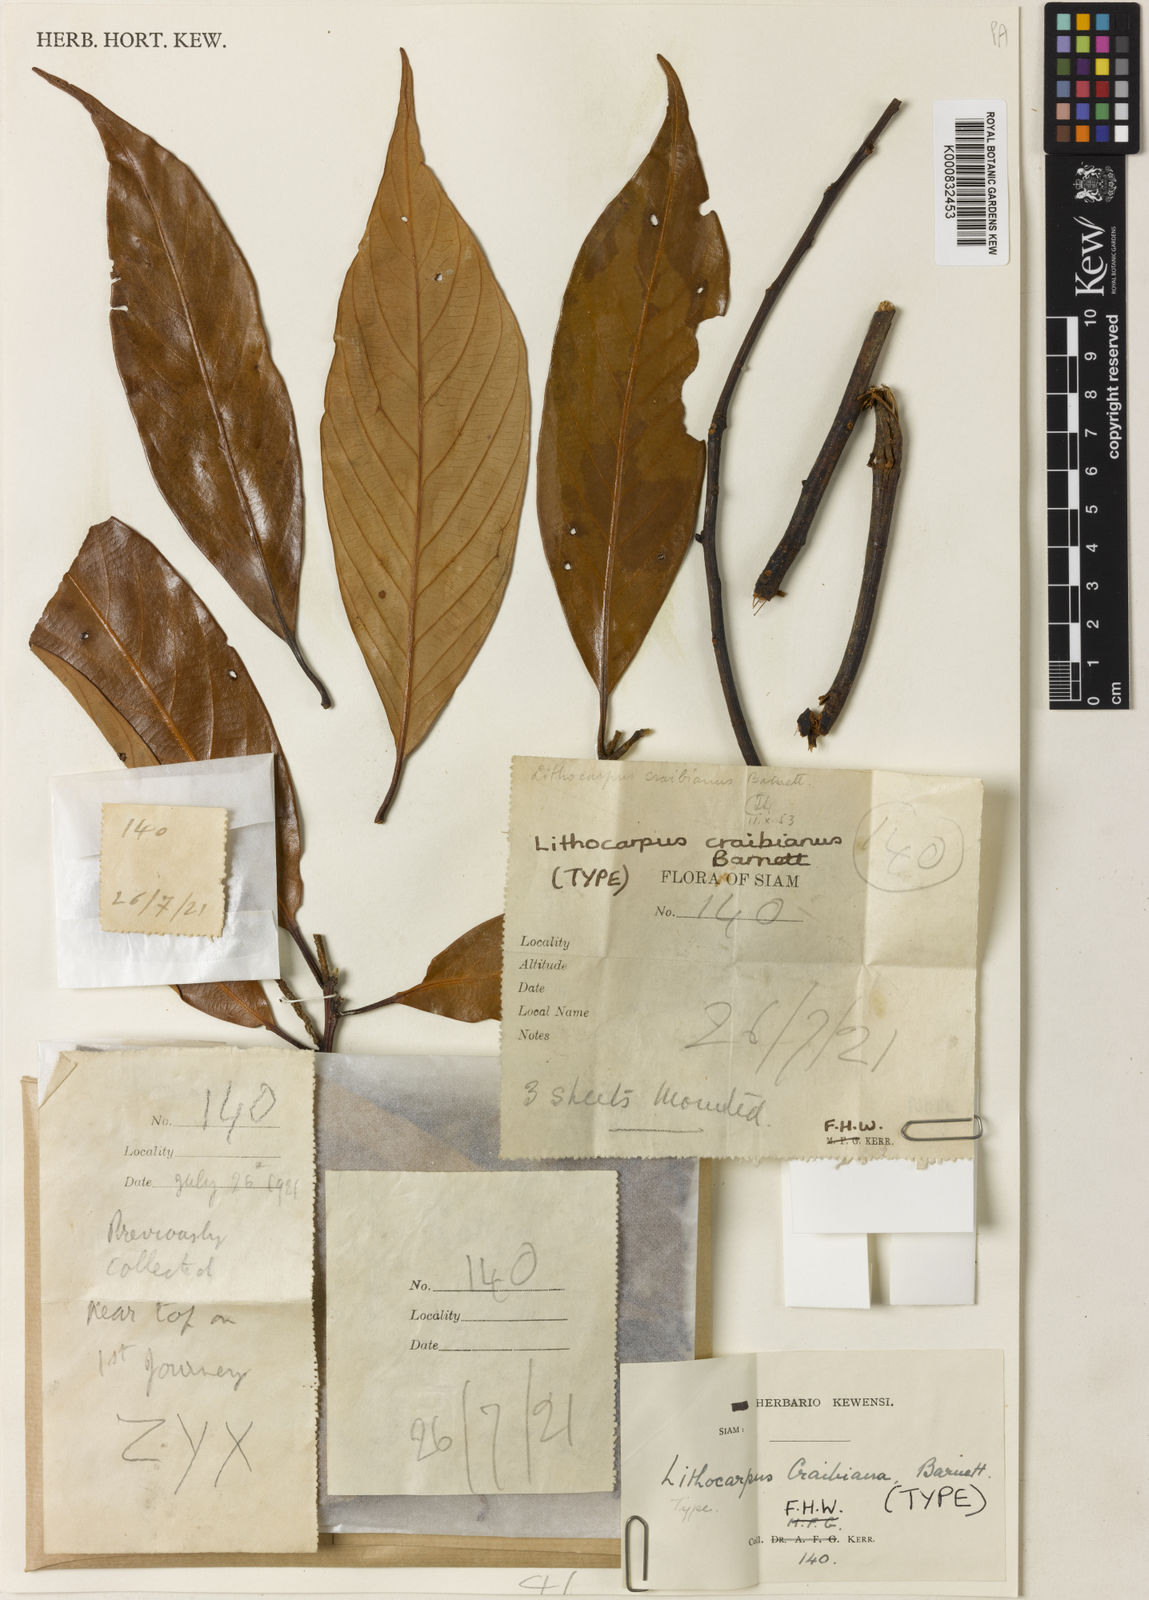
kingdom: Plantae
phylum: Tracheophyta
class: Magnoliopsida
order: Fagales
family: Fagaceae
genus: Lithocarpus
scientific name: Lithocarpus craibianus
